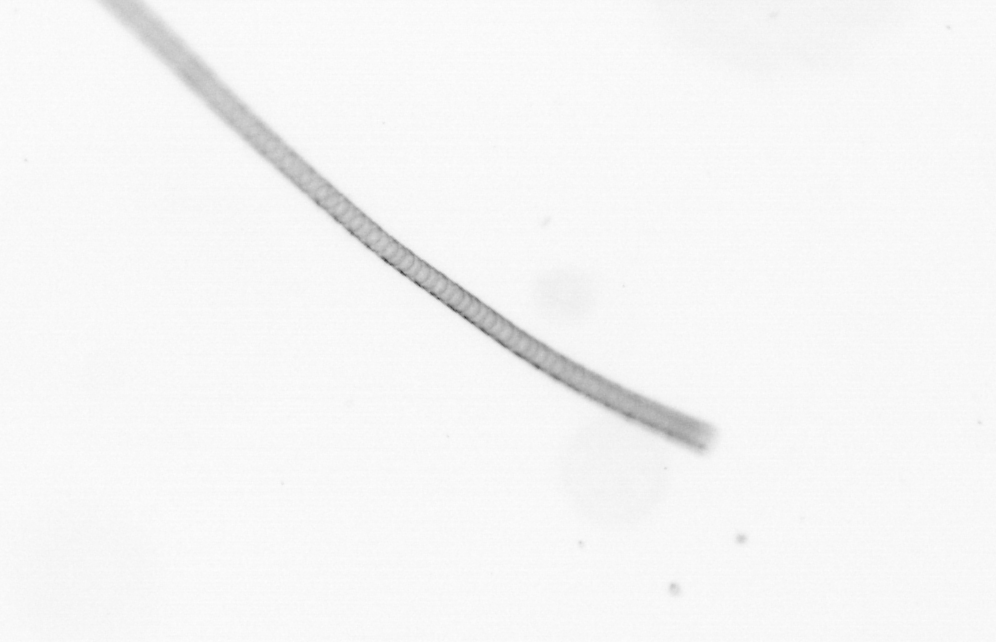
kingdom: Chromista
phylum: Ochrophyta
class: Bacillariophyceae
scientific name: Bacillariophyceae
